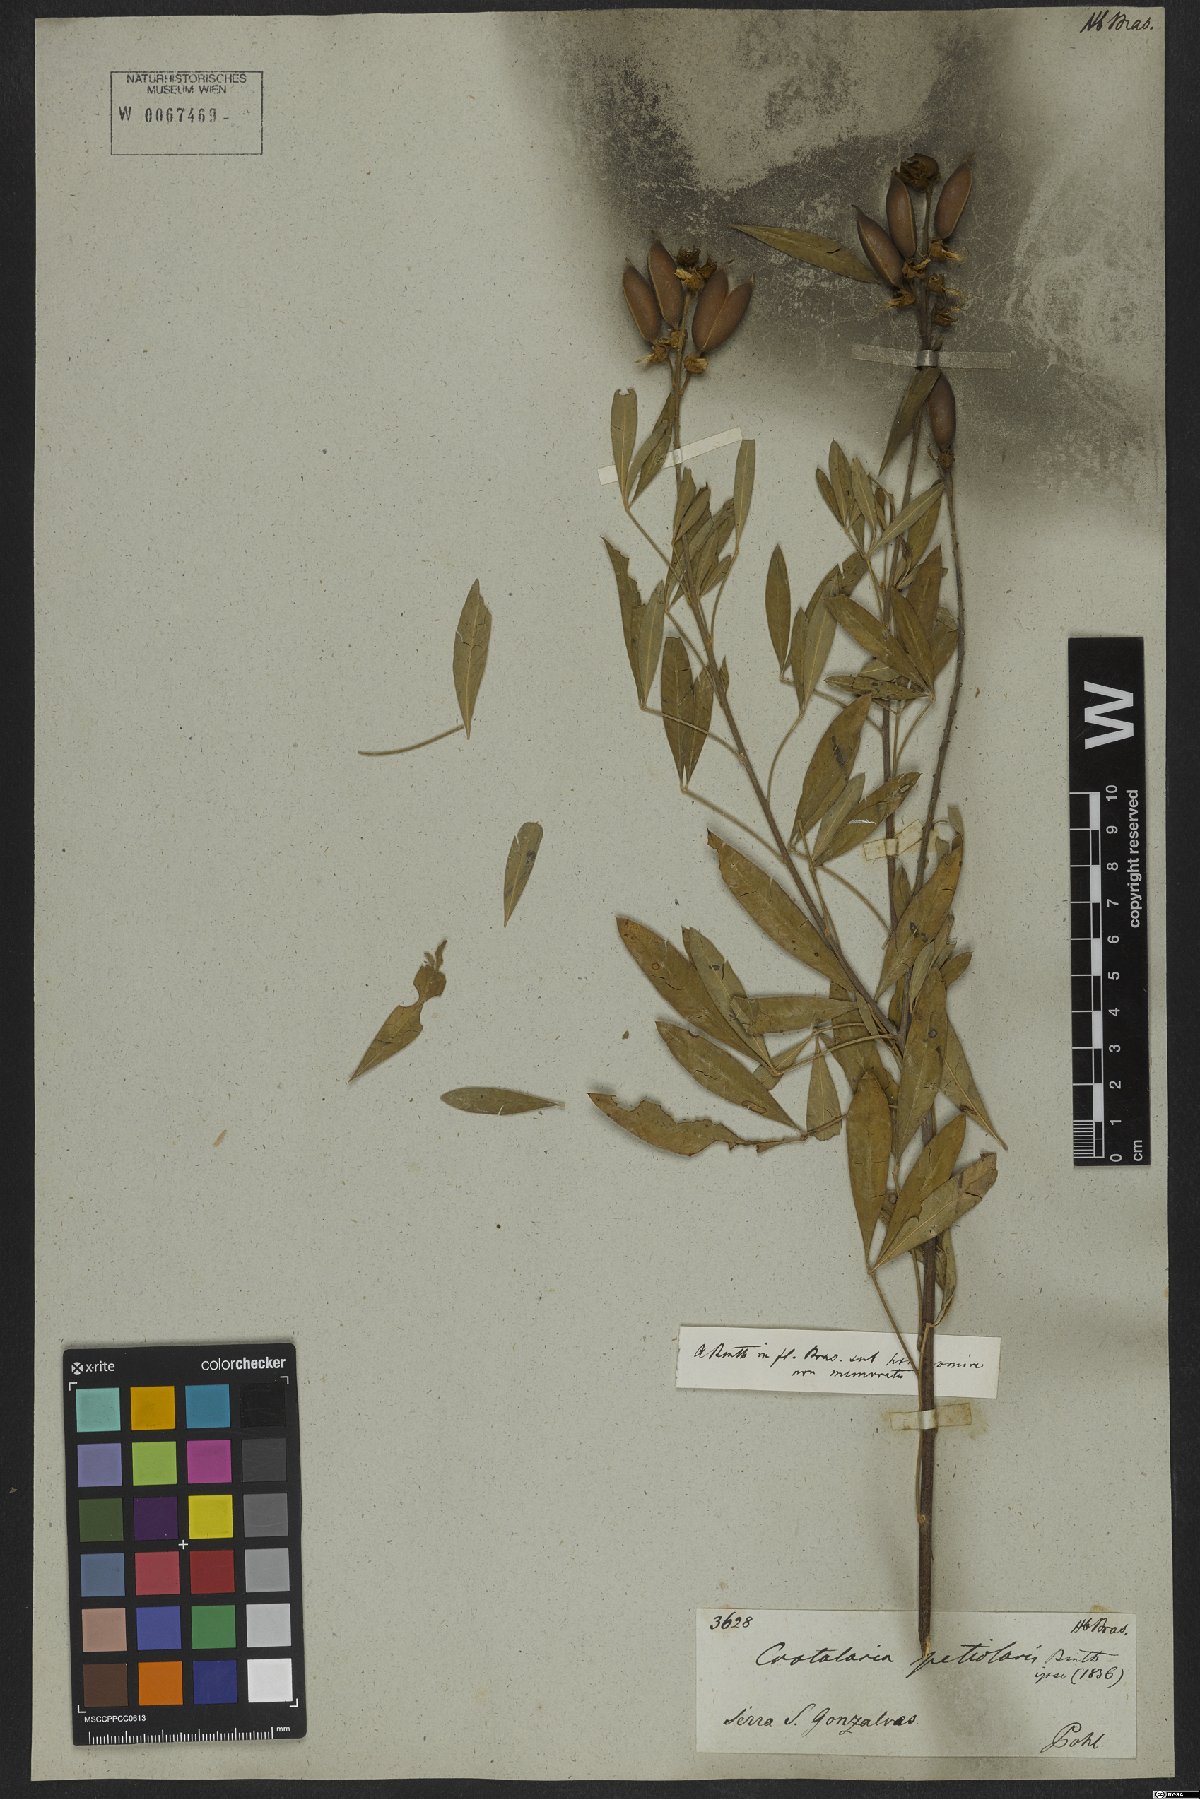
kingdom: Plantae
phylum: Tracheophyta
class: Magnoliopsida
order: Fabales
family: Fabaceae
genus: Crotalaria
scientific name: Crotalaria laburnifolia
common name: Birdflower
